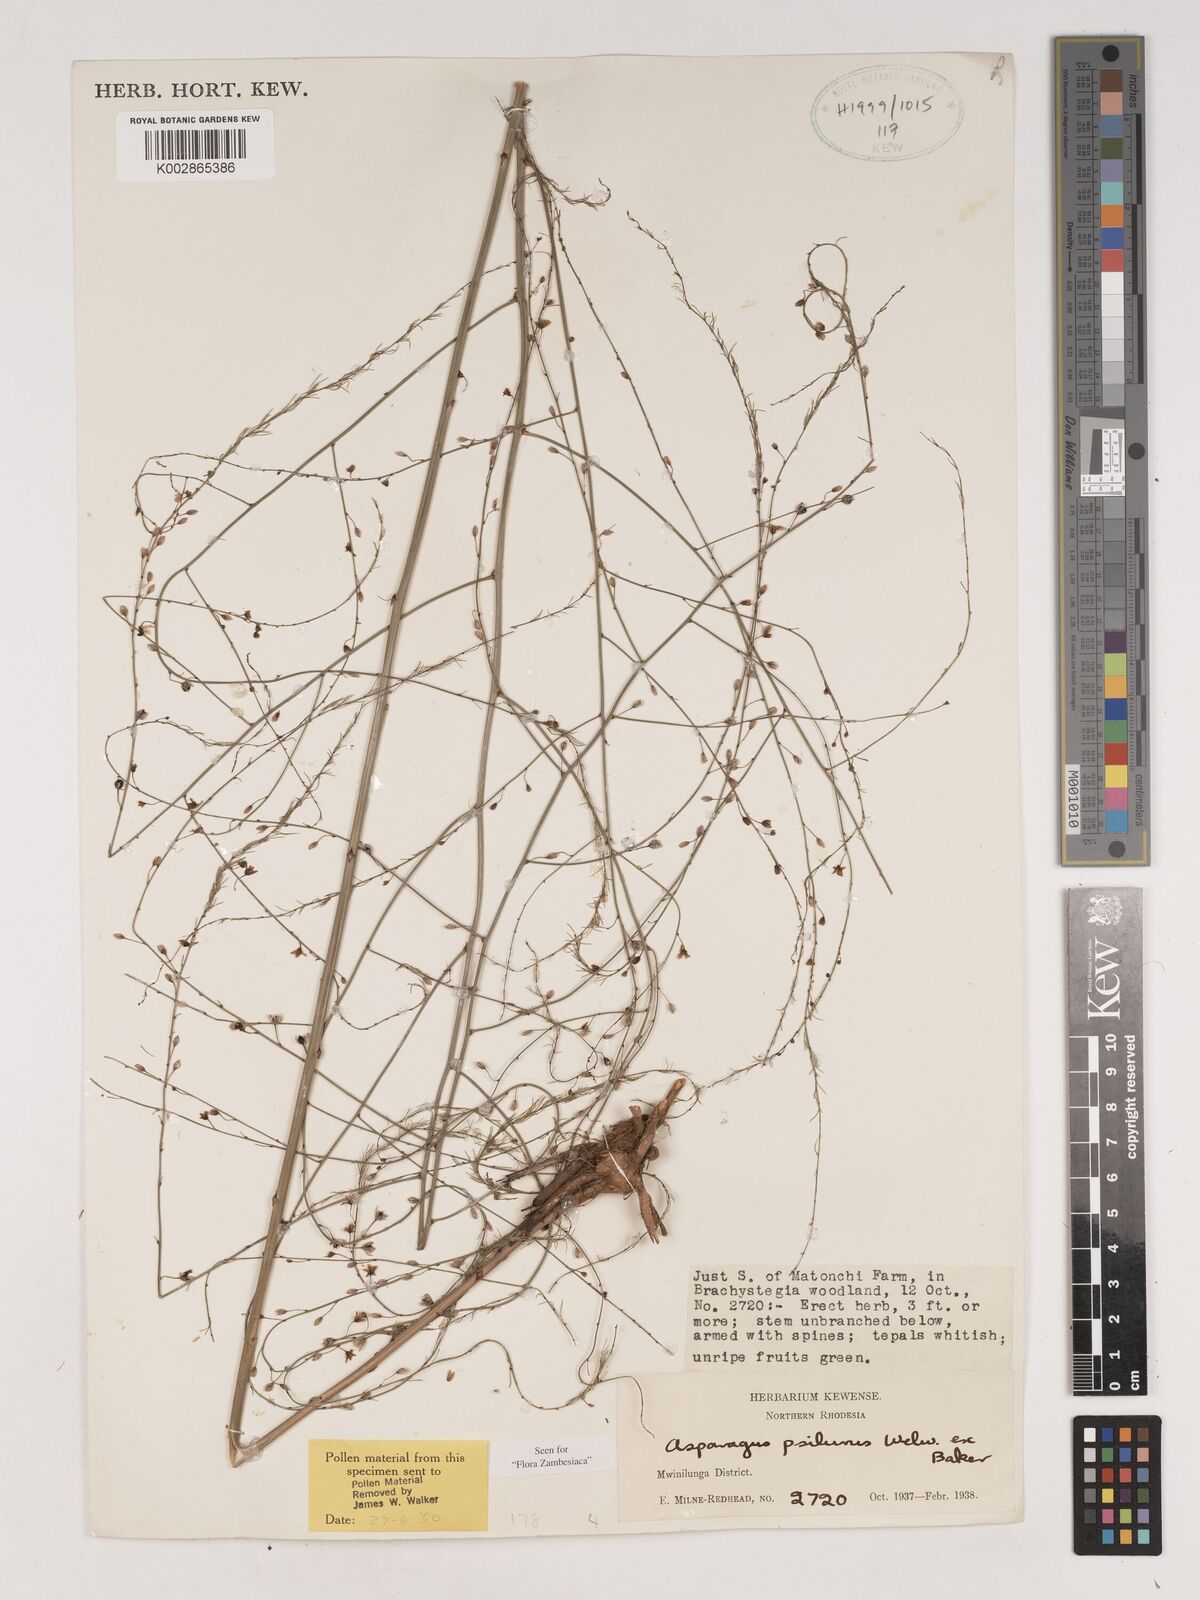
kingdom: Plantae
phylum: Tracheophyta
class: Liliopsida
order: Asparagales
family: Asparagaceae
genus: Asparagus
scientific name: Asparagus psilurus
